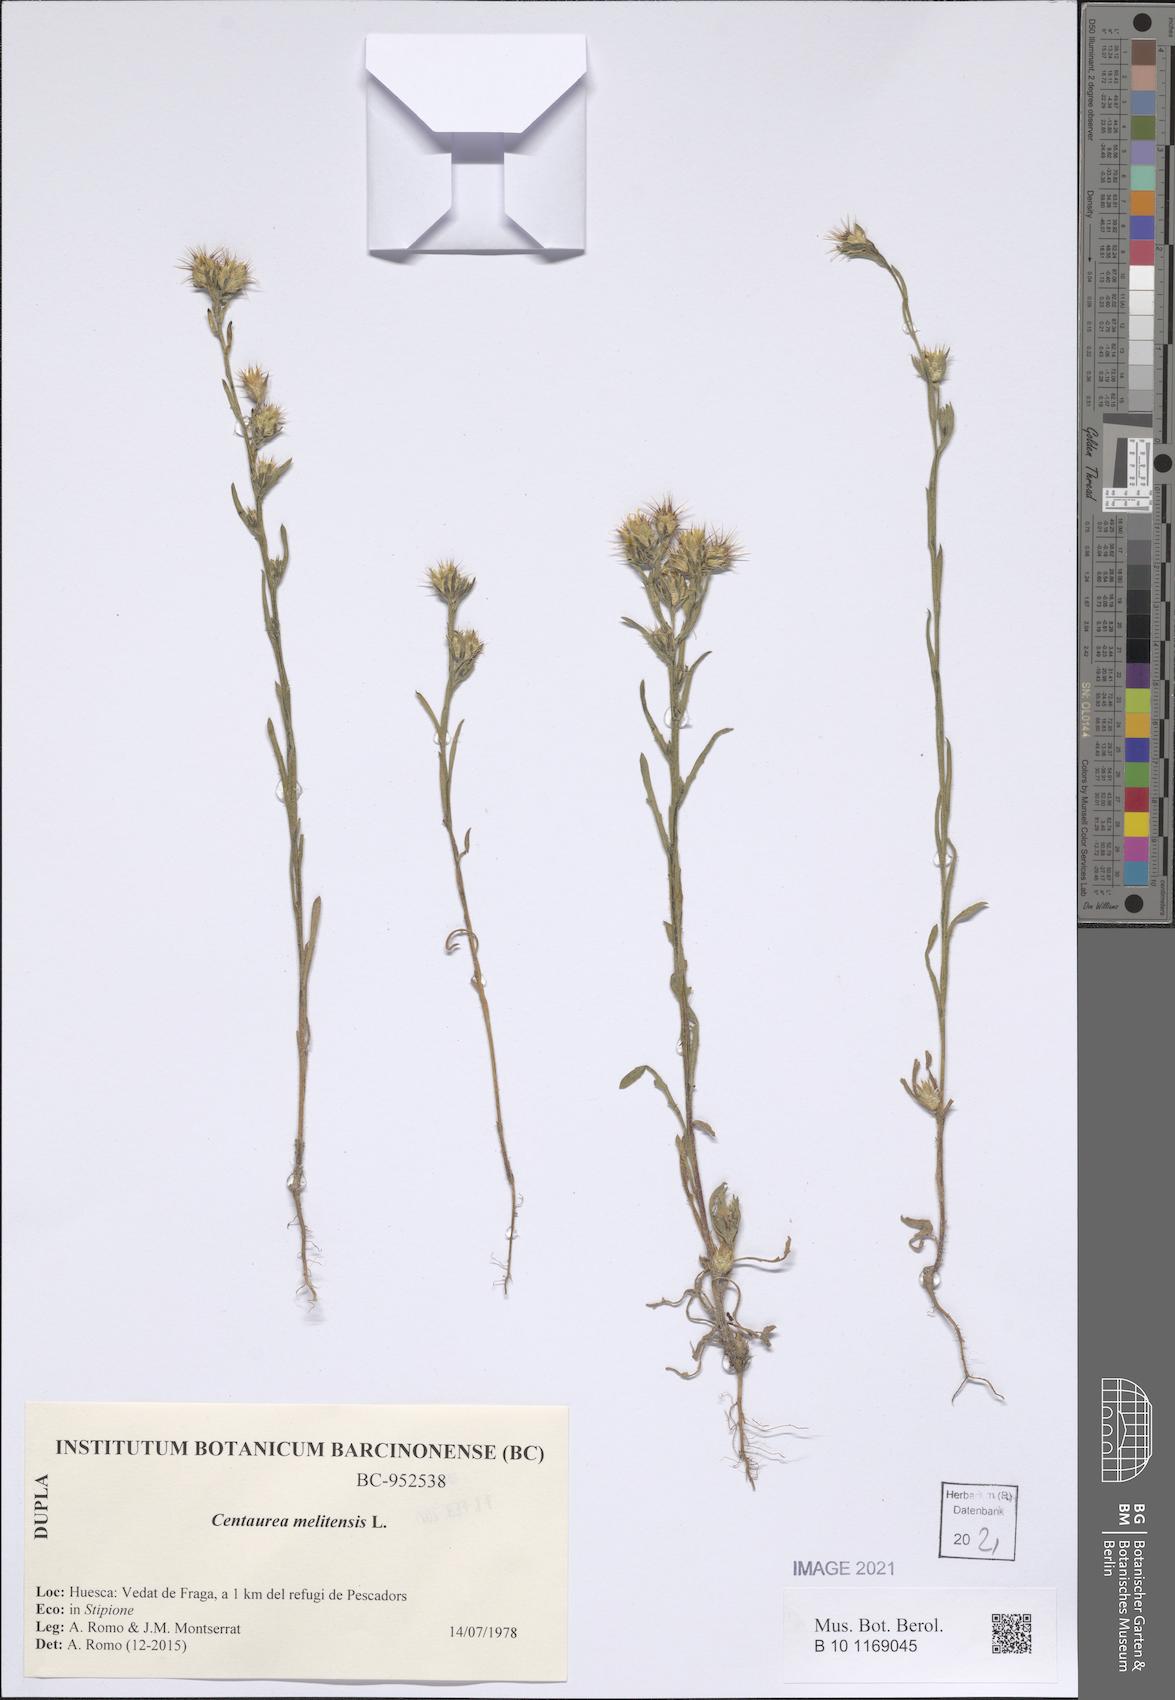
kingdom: Plantae
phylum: Tracheophyta
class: Magnoliopsida
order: Asterales
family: Asteraceae
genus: Centaurea
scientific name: Centaurea melitensis
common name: Maltese star-thistle
